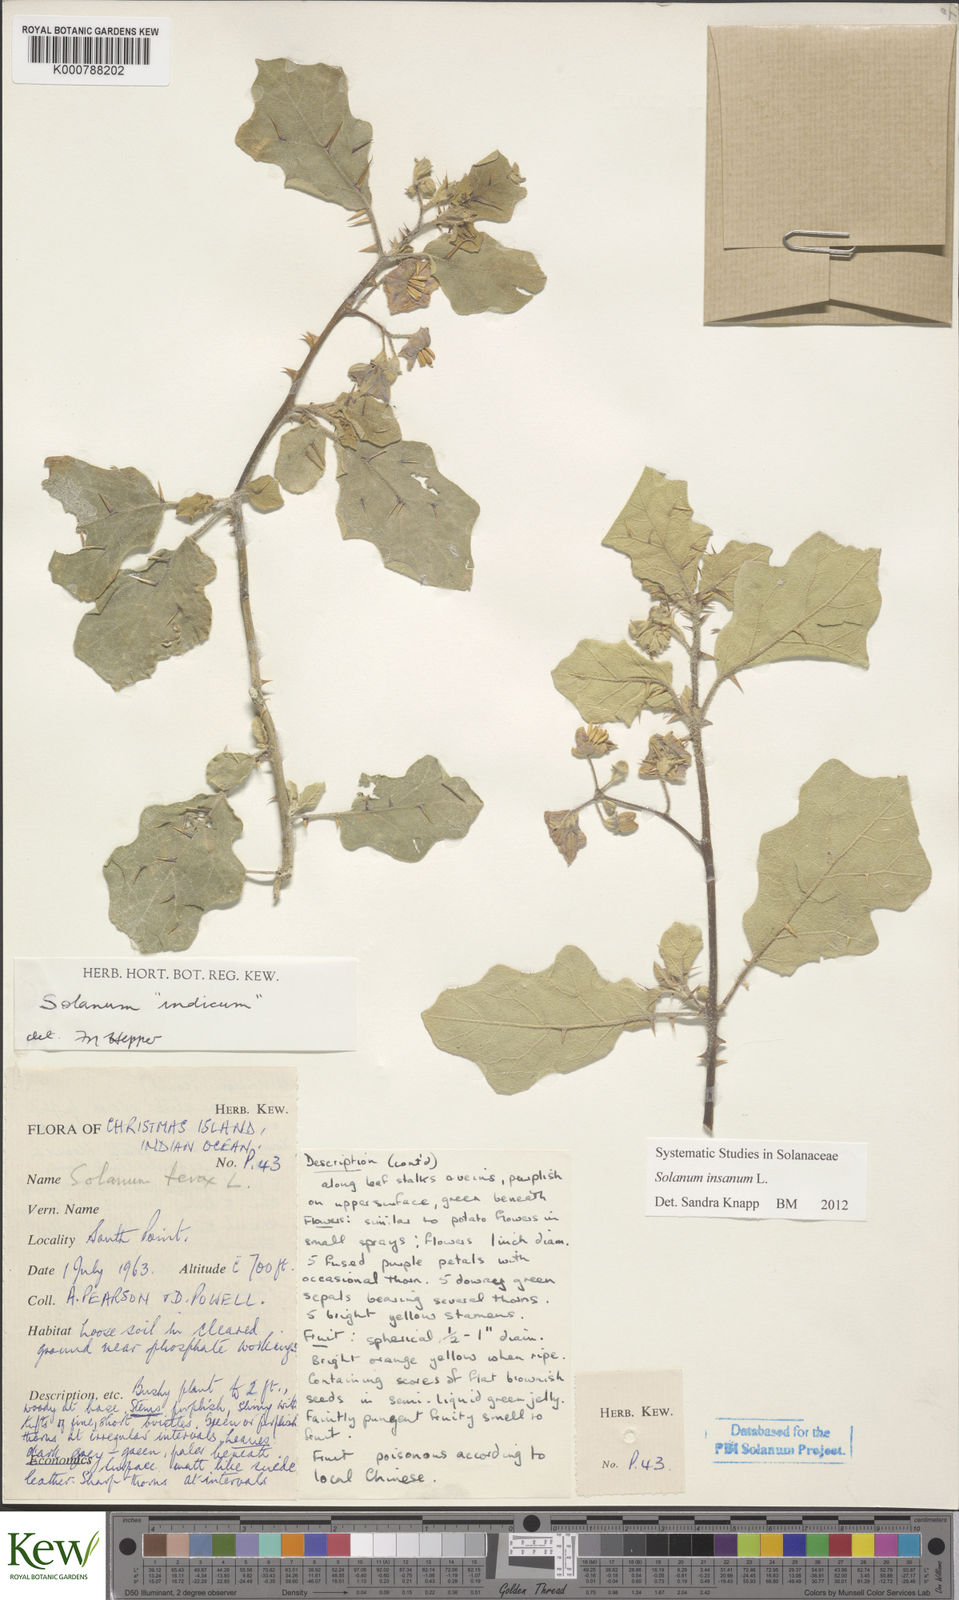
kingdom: Plantae
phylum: Tracheophyta
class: Magnoliopsida
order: Solanales
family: Solanaceae
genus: Solanum
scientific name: Solanum insanum
